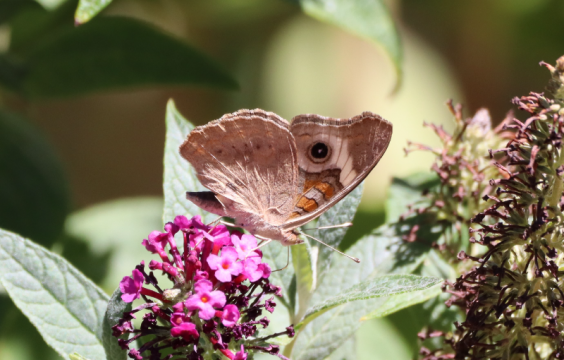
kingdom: Animalia
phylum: Arthropoda
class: Insecta
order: Lepidoptera
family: Nymphalidae
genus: Junonia
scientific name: Junonia coenia
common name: Common Buckeye
